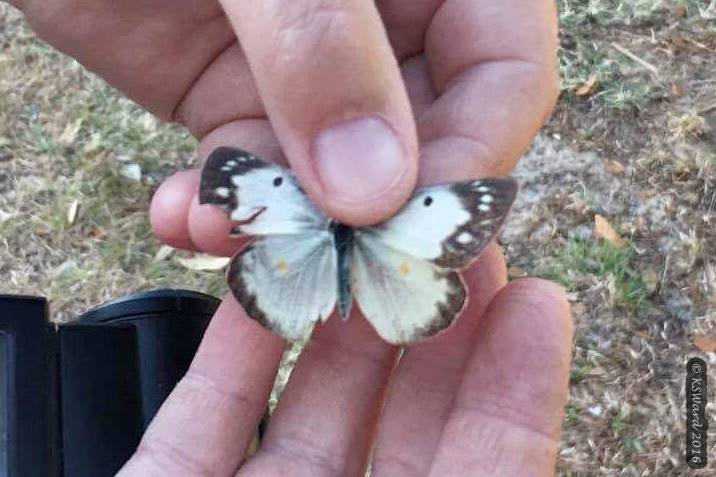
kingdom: Animalia
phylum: Arthropoda
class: Insecta
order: Lepidoptera
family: Pieridae
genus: Colias
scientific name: Colias eurytheme
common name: Orange Sulphur
